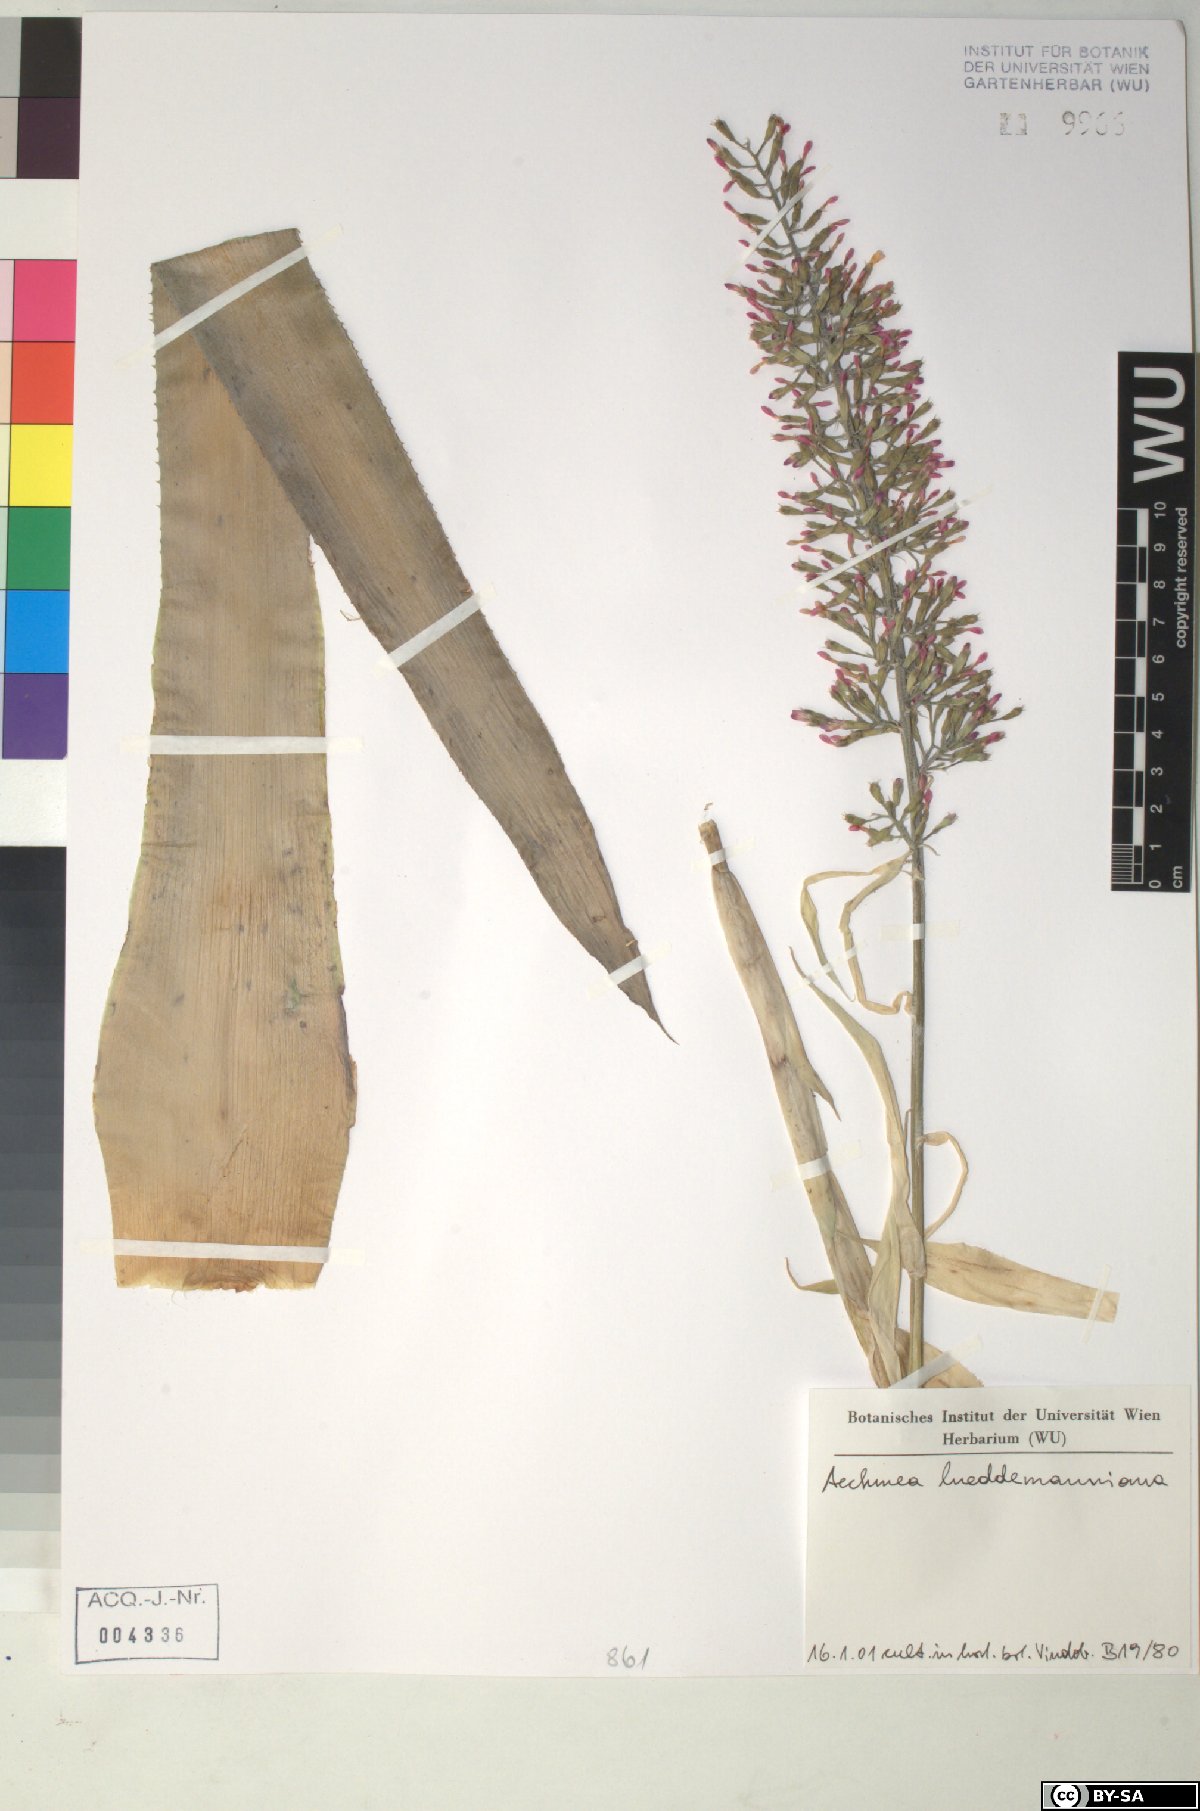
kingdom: Plantae
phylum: Tracheophyta
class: Liliopsida
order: Poales
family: Bromeliaceae
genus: Aechmea
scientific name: Aechmea lueddemanniana
